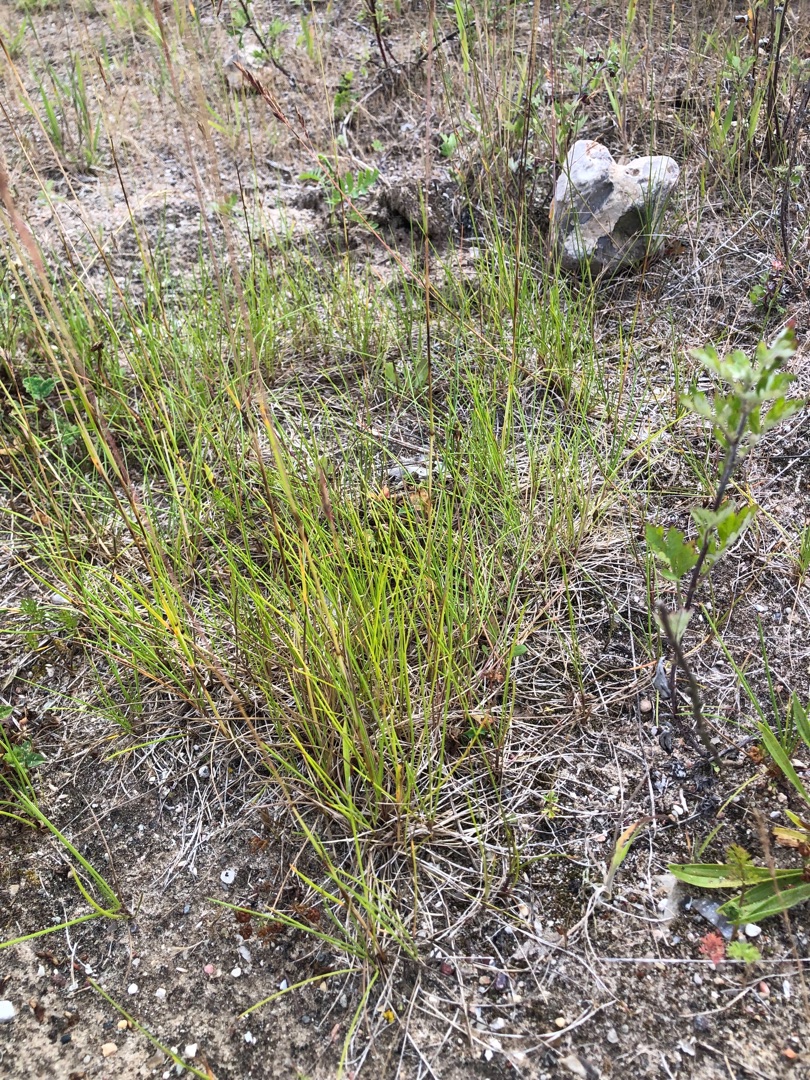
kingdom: Plantae
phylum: Tracheophyta
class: Liliopsida
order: Poales
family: Poaceae
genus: Festuca
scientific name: Festuca rubra
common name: Rød svingel
